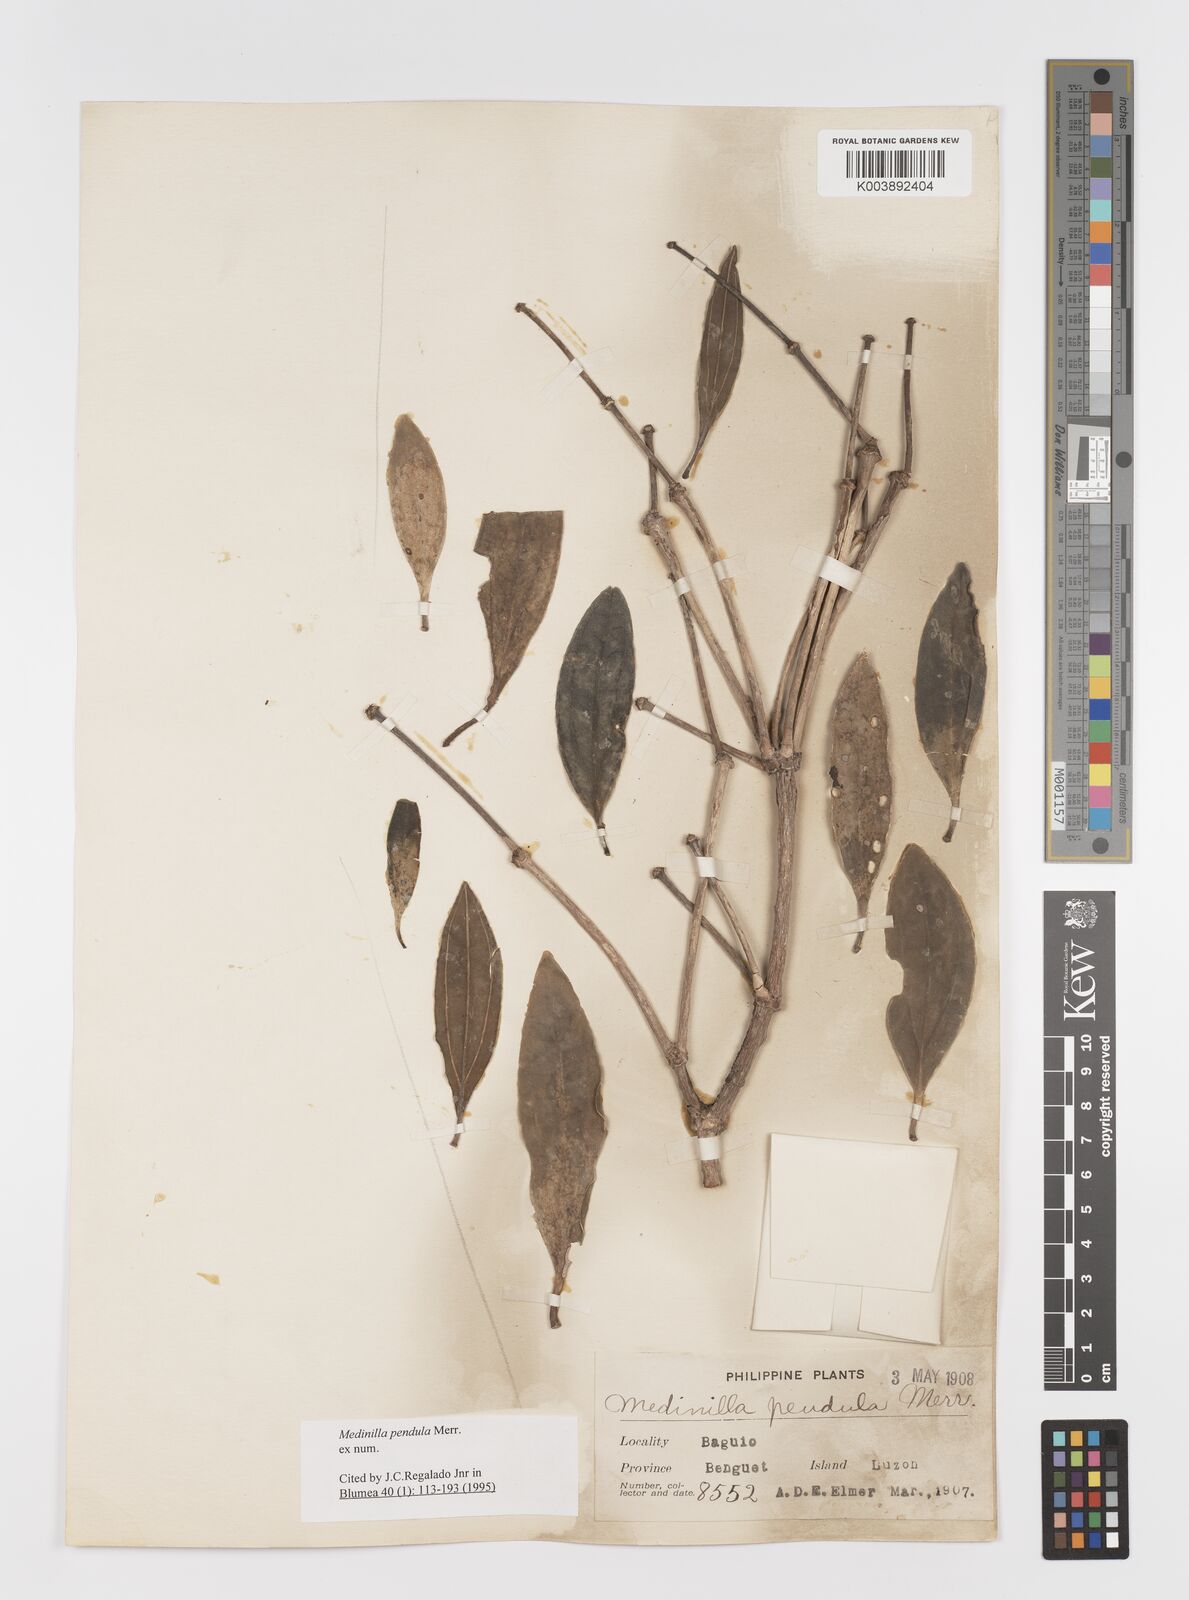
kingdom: Plantae
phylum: Tracheophyta
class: Magnoliopsida
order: Myrtales
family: Melastomataceae
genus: Medinilla
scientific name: Medinilla pendula
